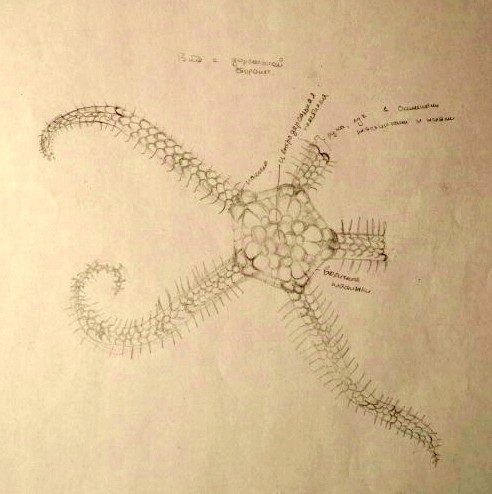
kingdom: Animalia
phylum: Echinodermata
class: Ophiuroidea
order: Amphilepidida
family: Ophiopholidae
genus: Ophiopholis
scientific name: Ophiopholis aculeata
